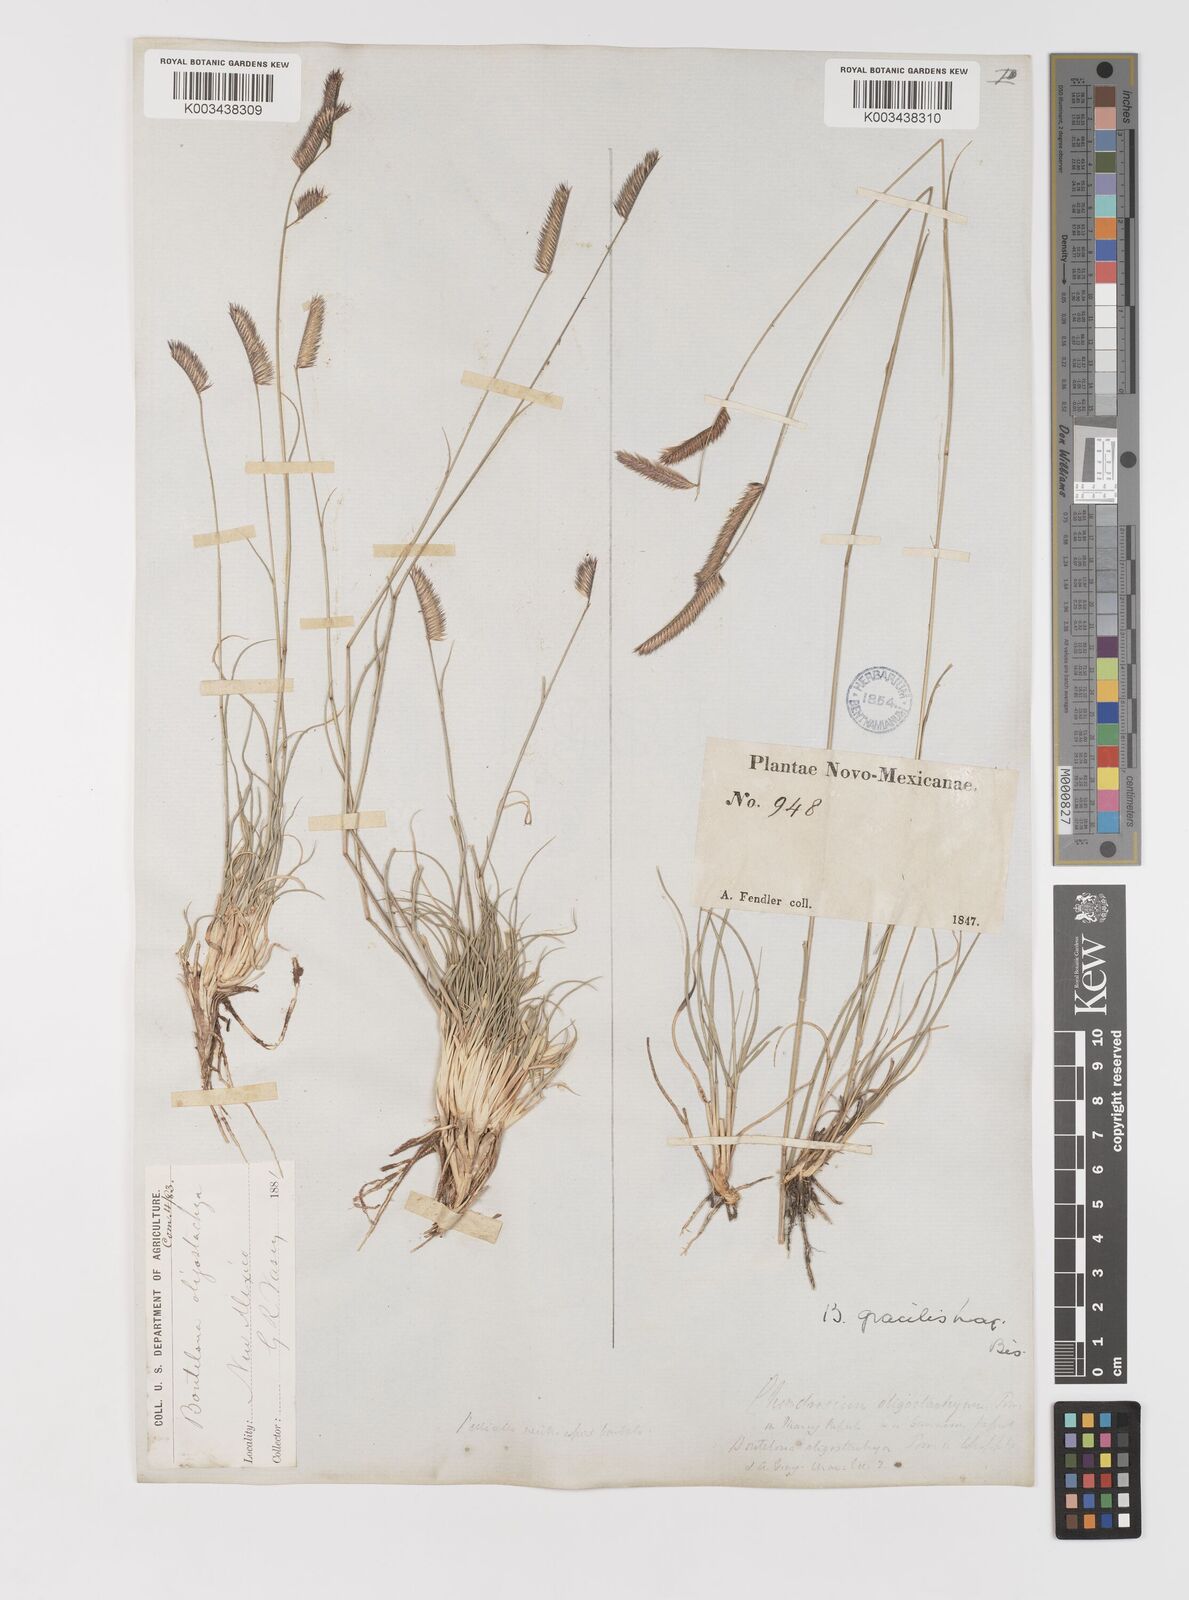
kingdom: Plantae
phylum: Tracheophyta
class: Liliopsida
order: Poales
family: Poaceae
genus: Bouteloua
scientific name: Bouteloua
